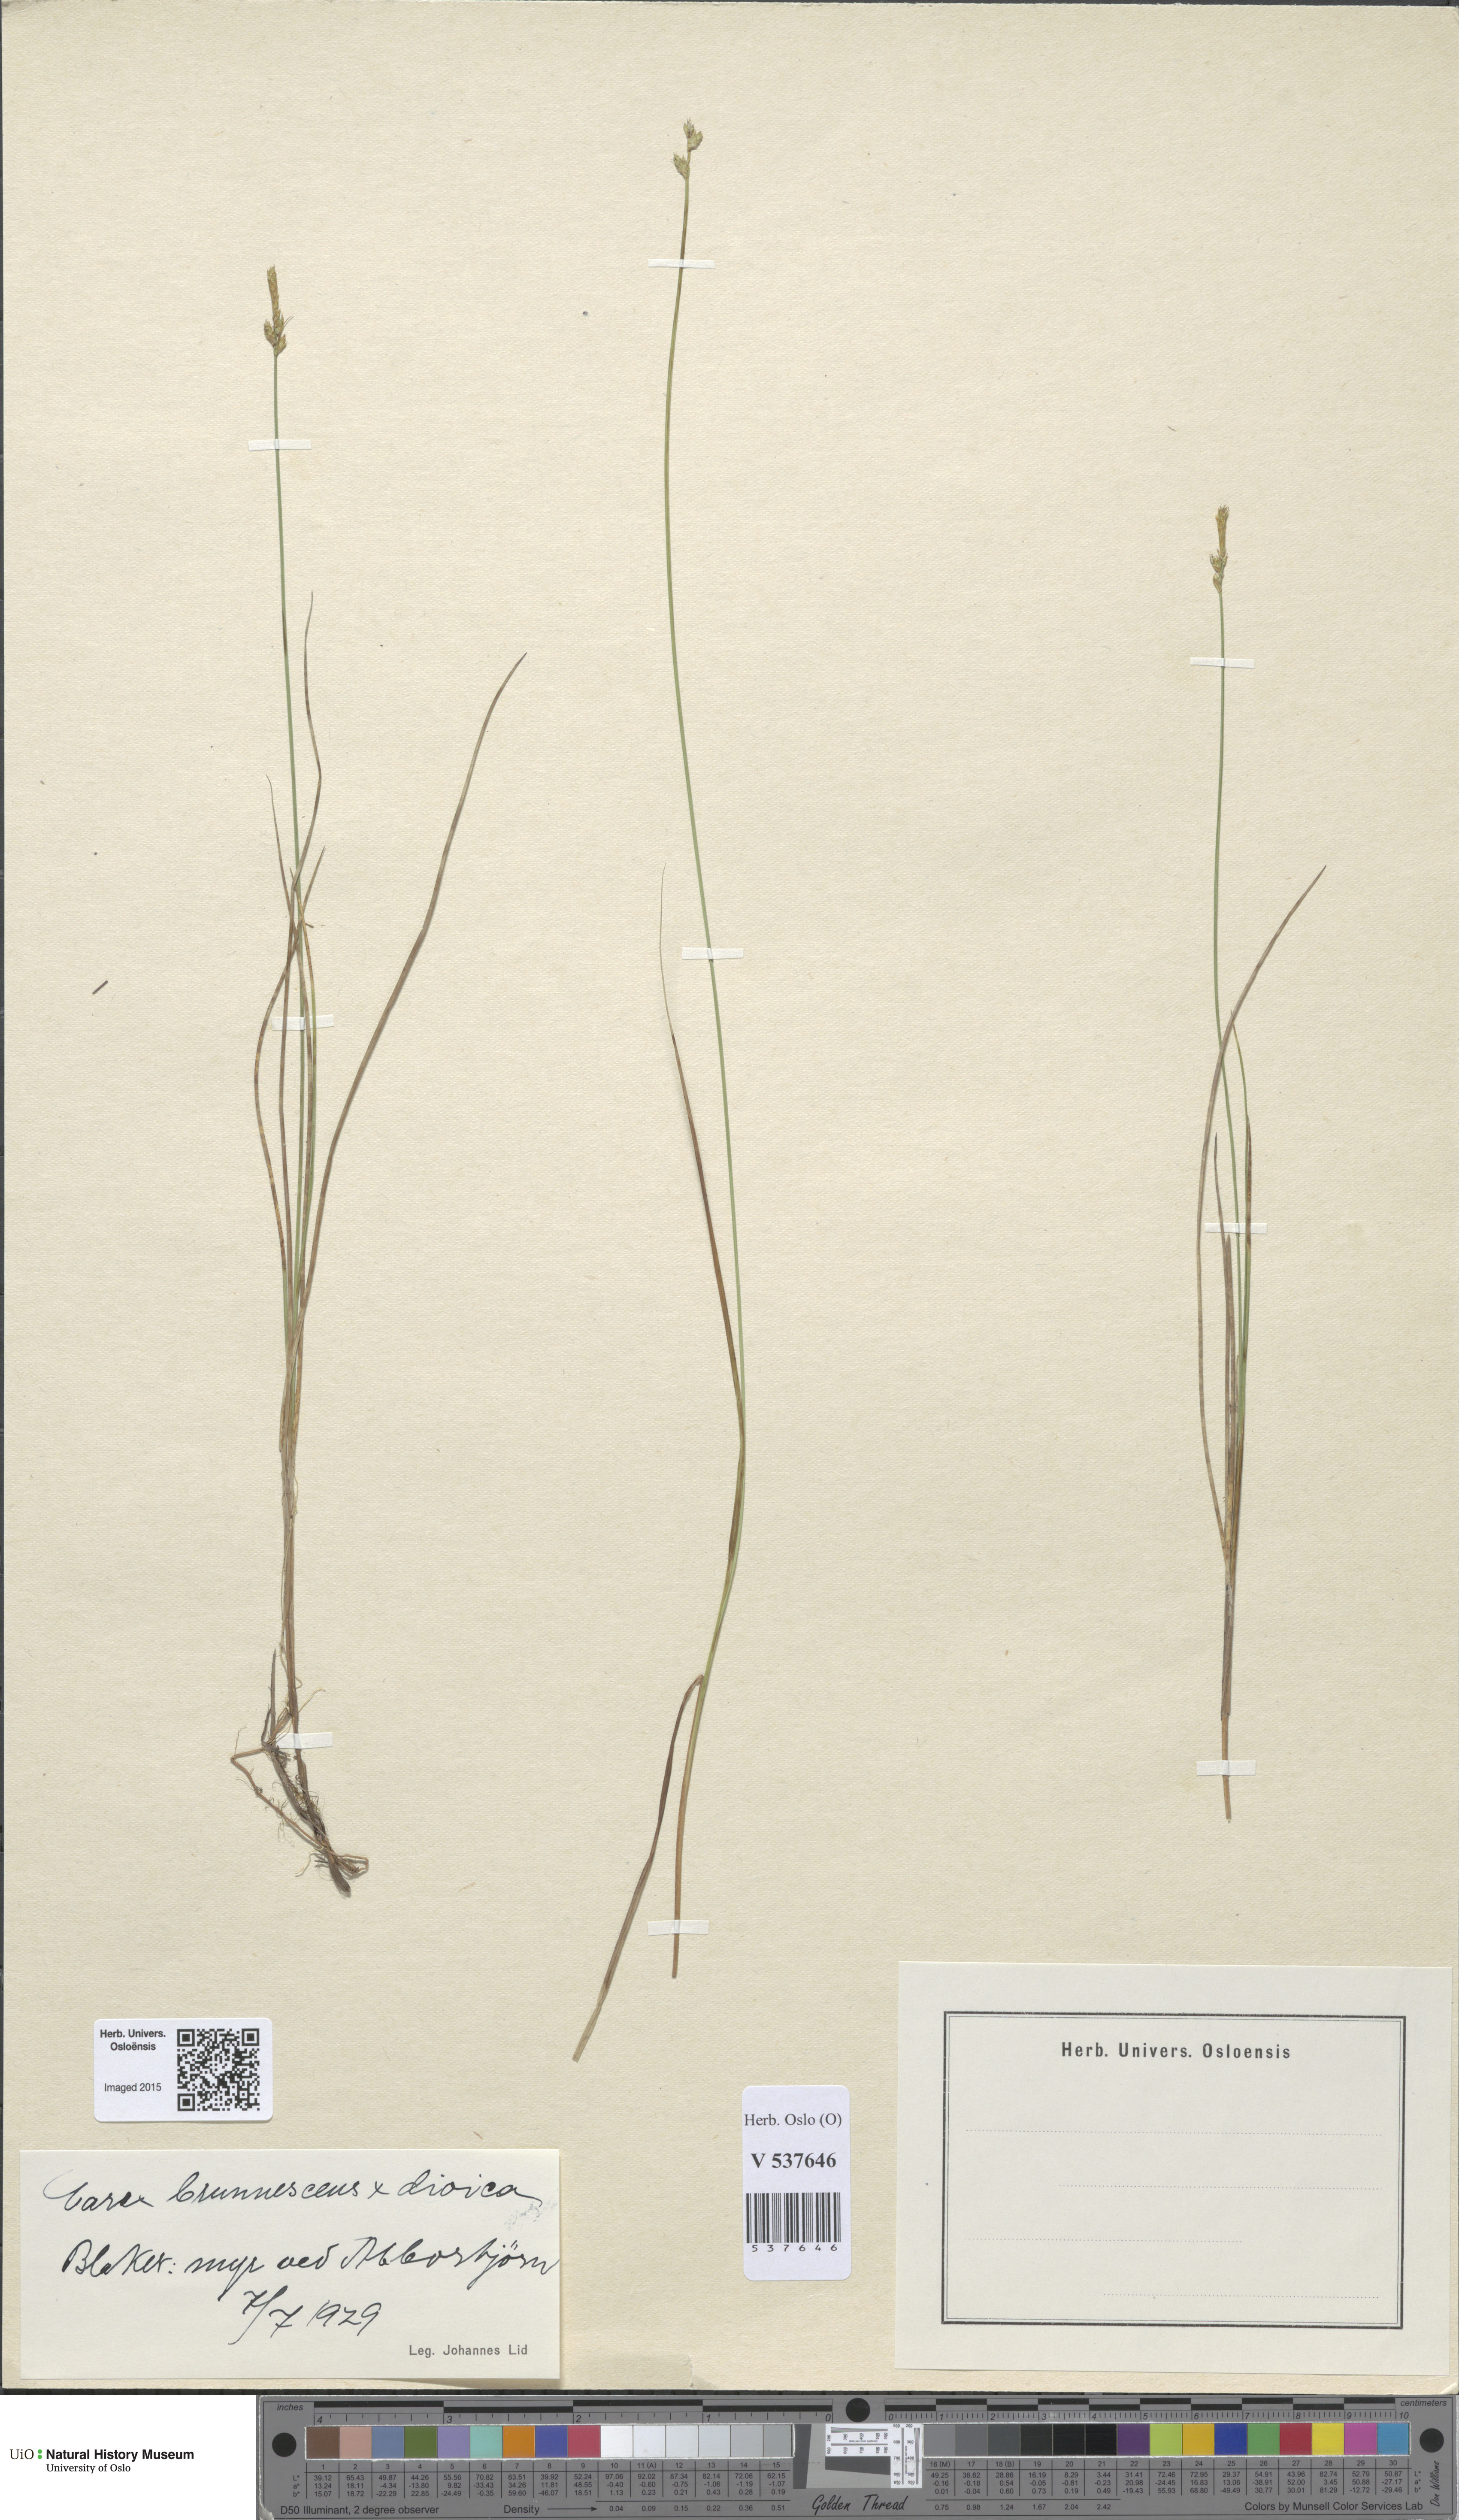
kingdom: Plantae
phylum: Tracheophyta
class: Liliopsida
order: Poales
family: Cyperaceae
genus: Carex
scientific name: Carex
